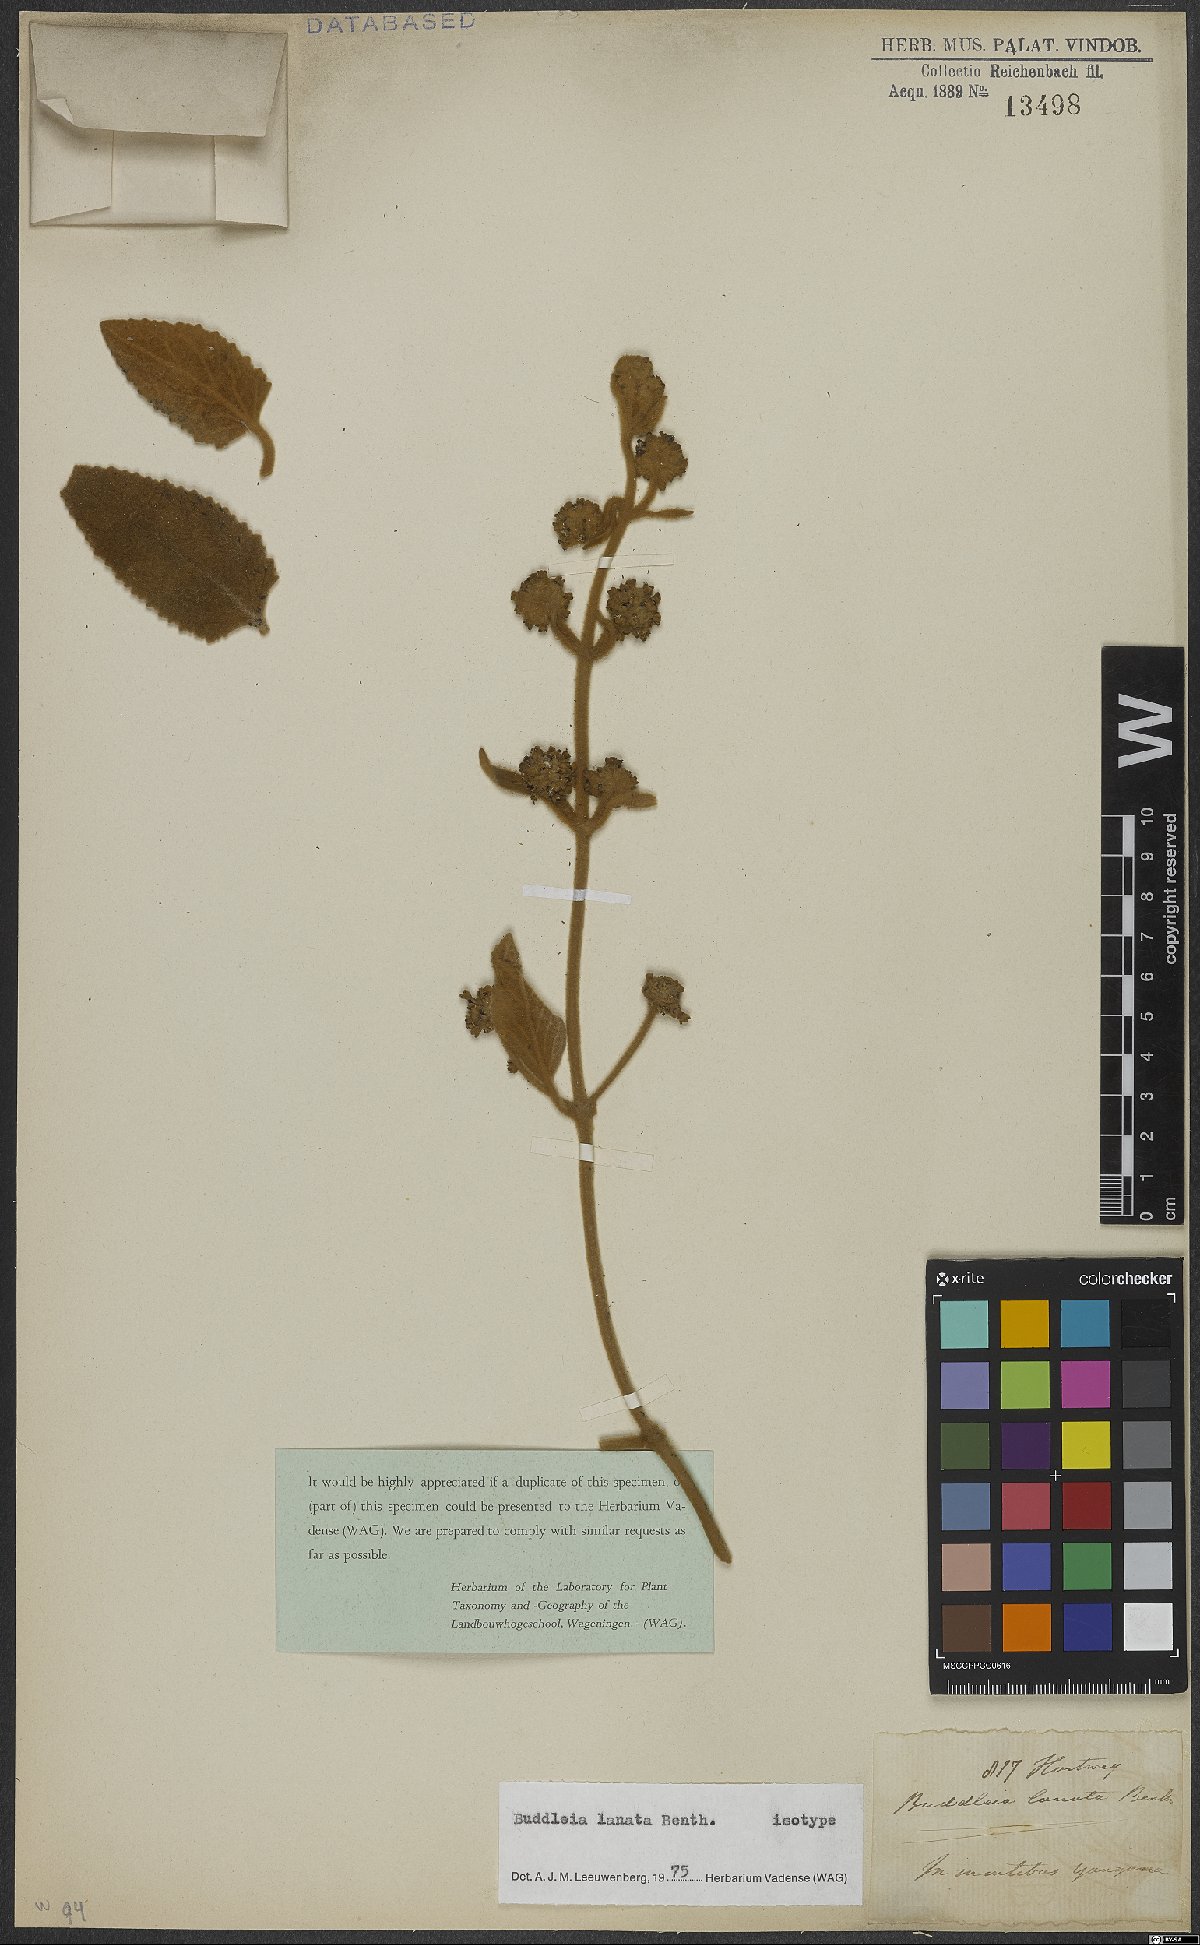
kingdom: Plantae
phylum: Tracheophyta
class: Magnoliopsida
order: Lamiales
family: Scrophulariaceae
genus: Buddleja
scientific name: Buddleja lanata
